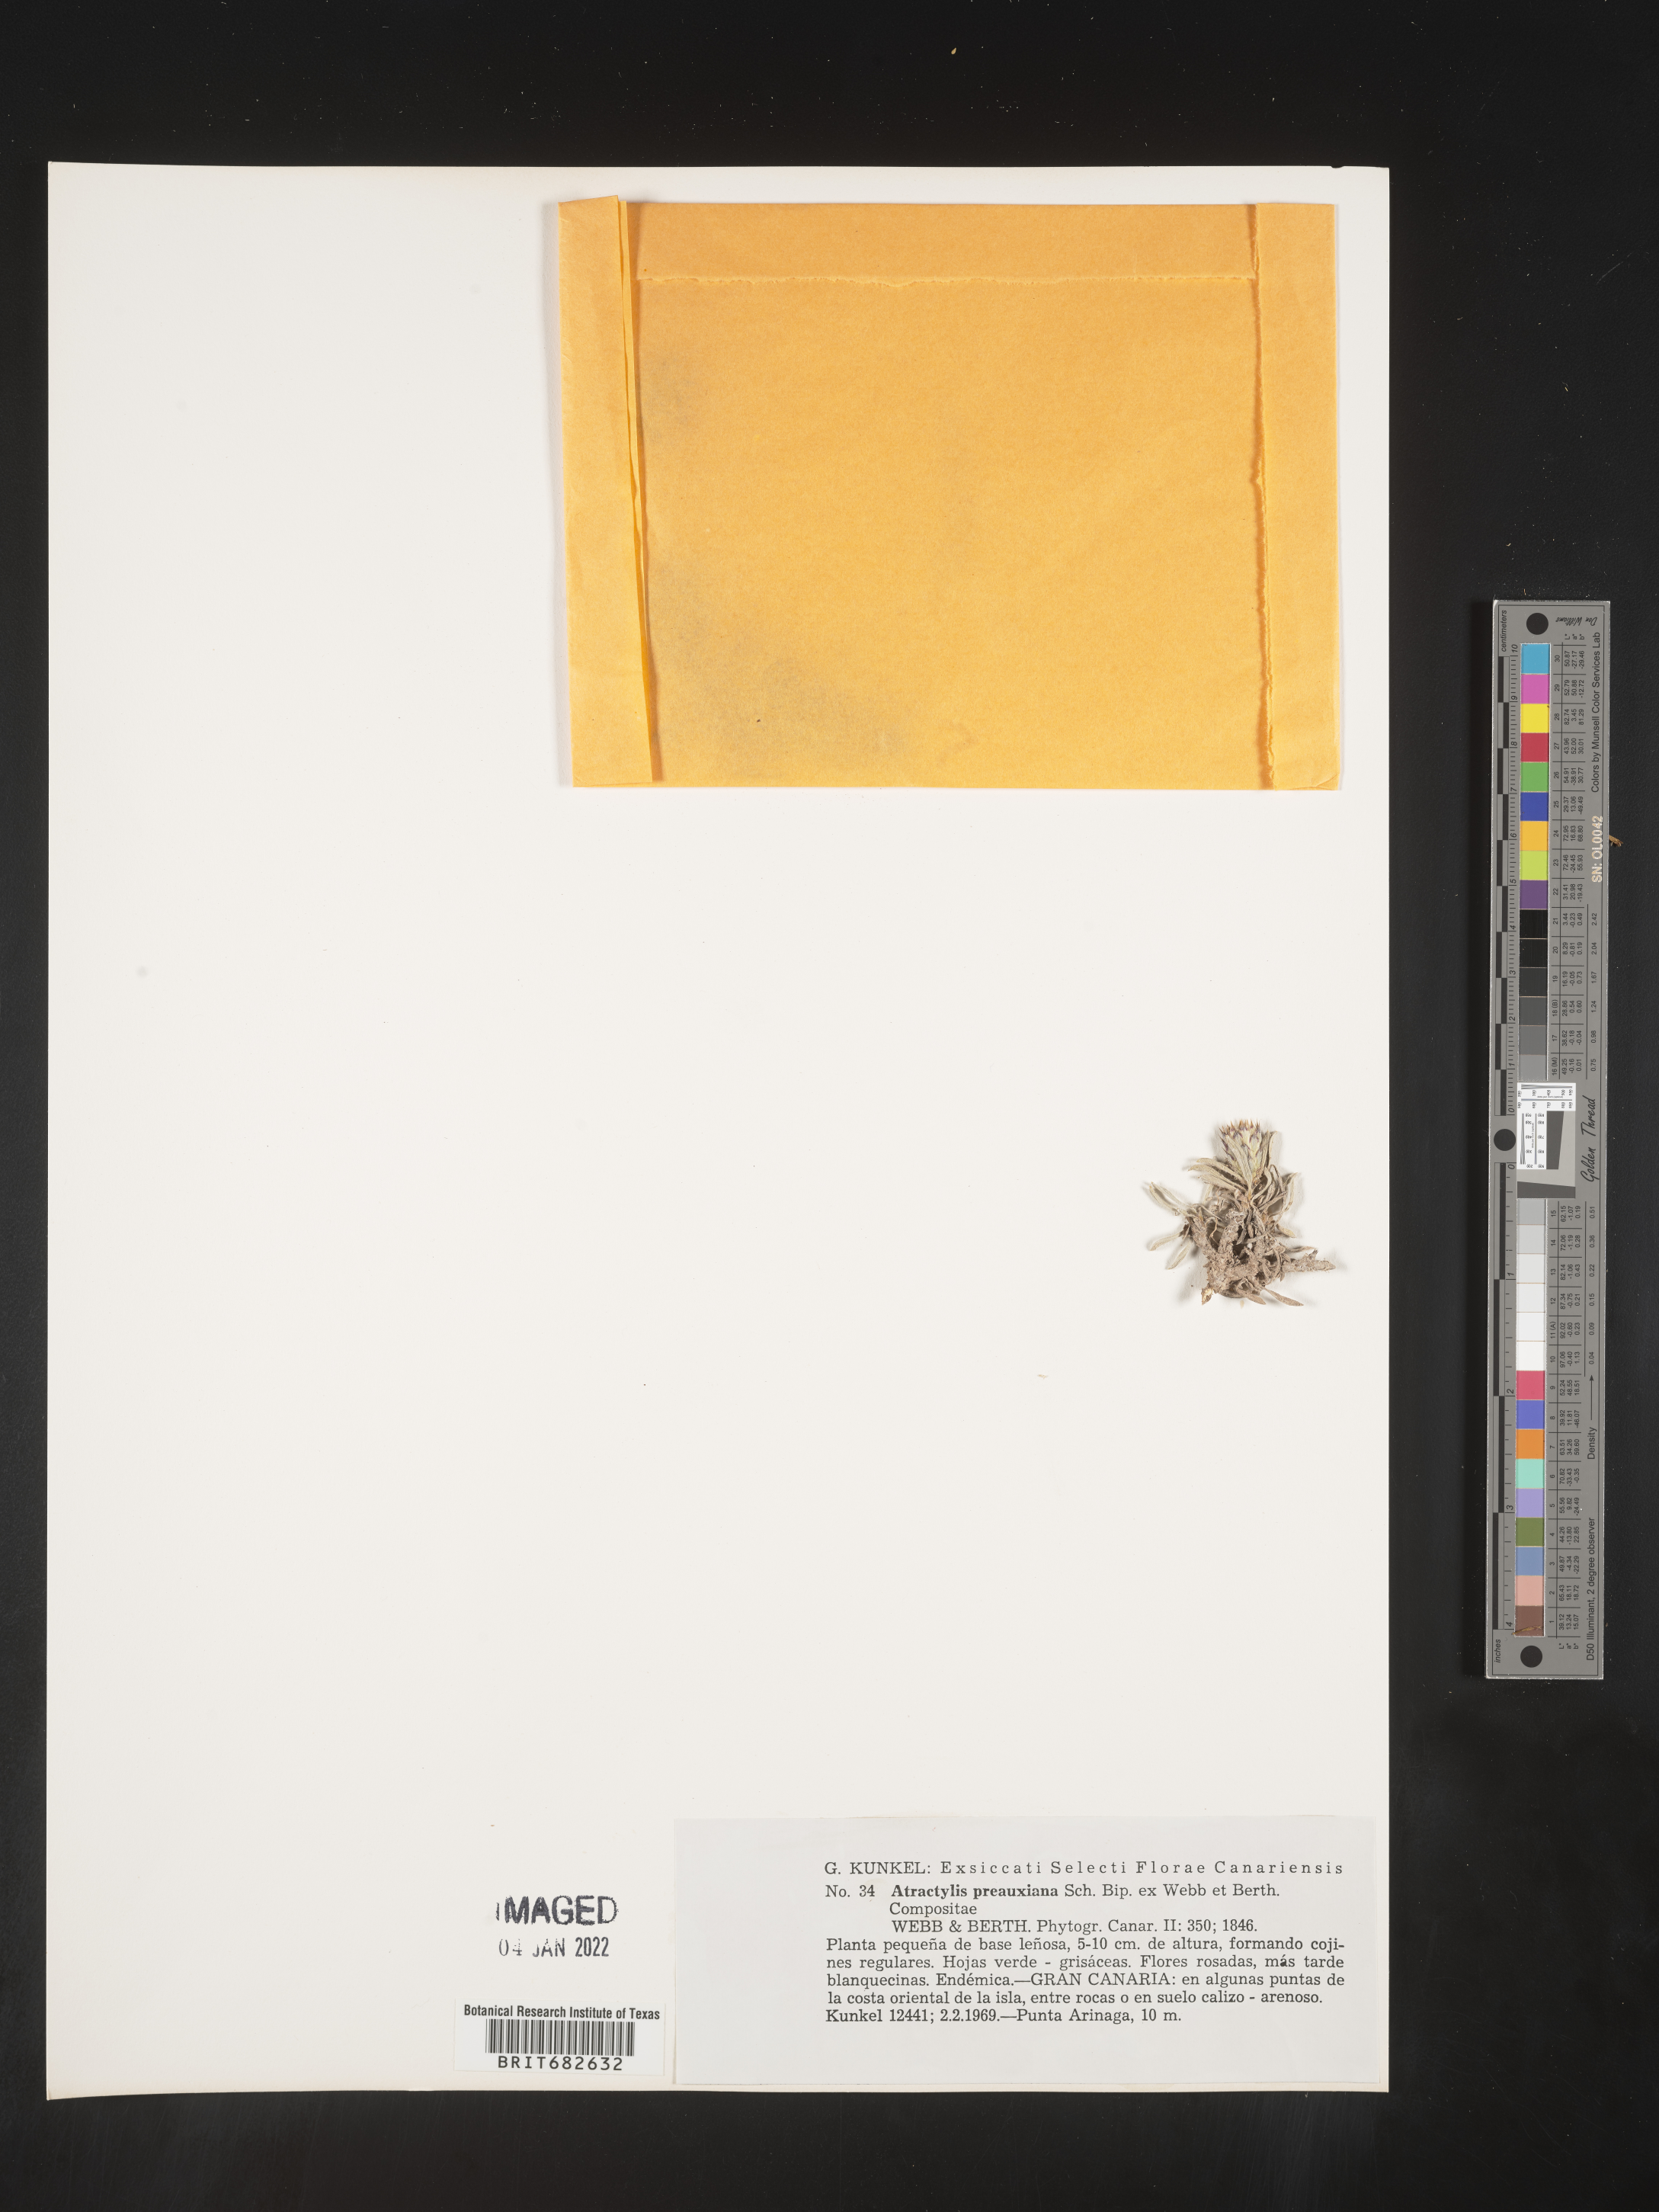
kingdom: Plantae
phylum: Tracheophyta
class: Magnoliopsida
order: Asterales
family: Asteraceae
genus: Atractylis
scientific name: Atractylis
